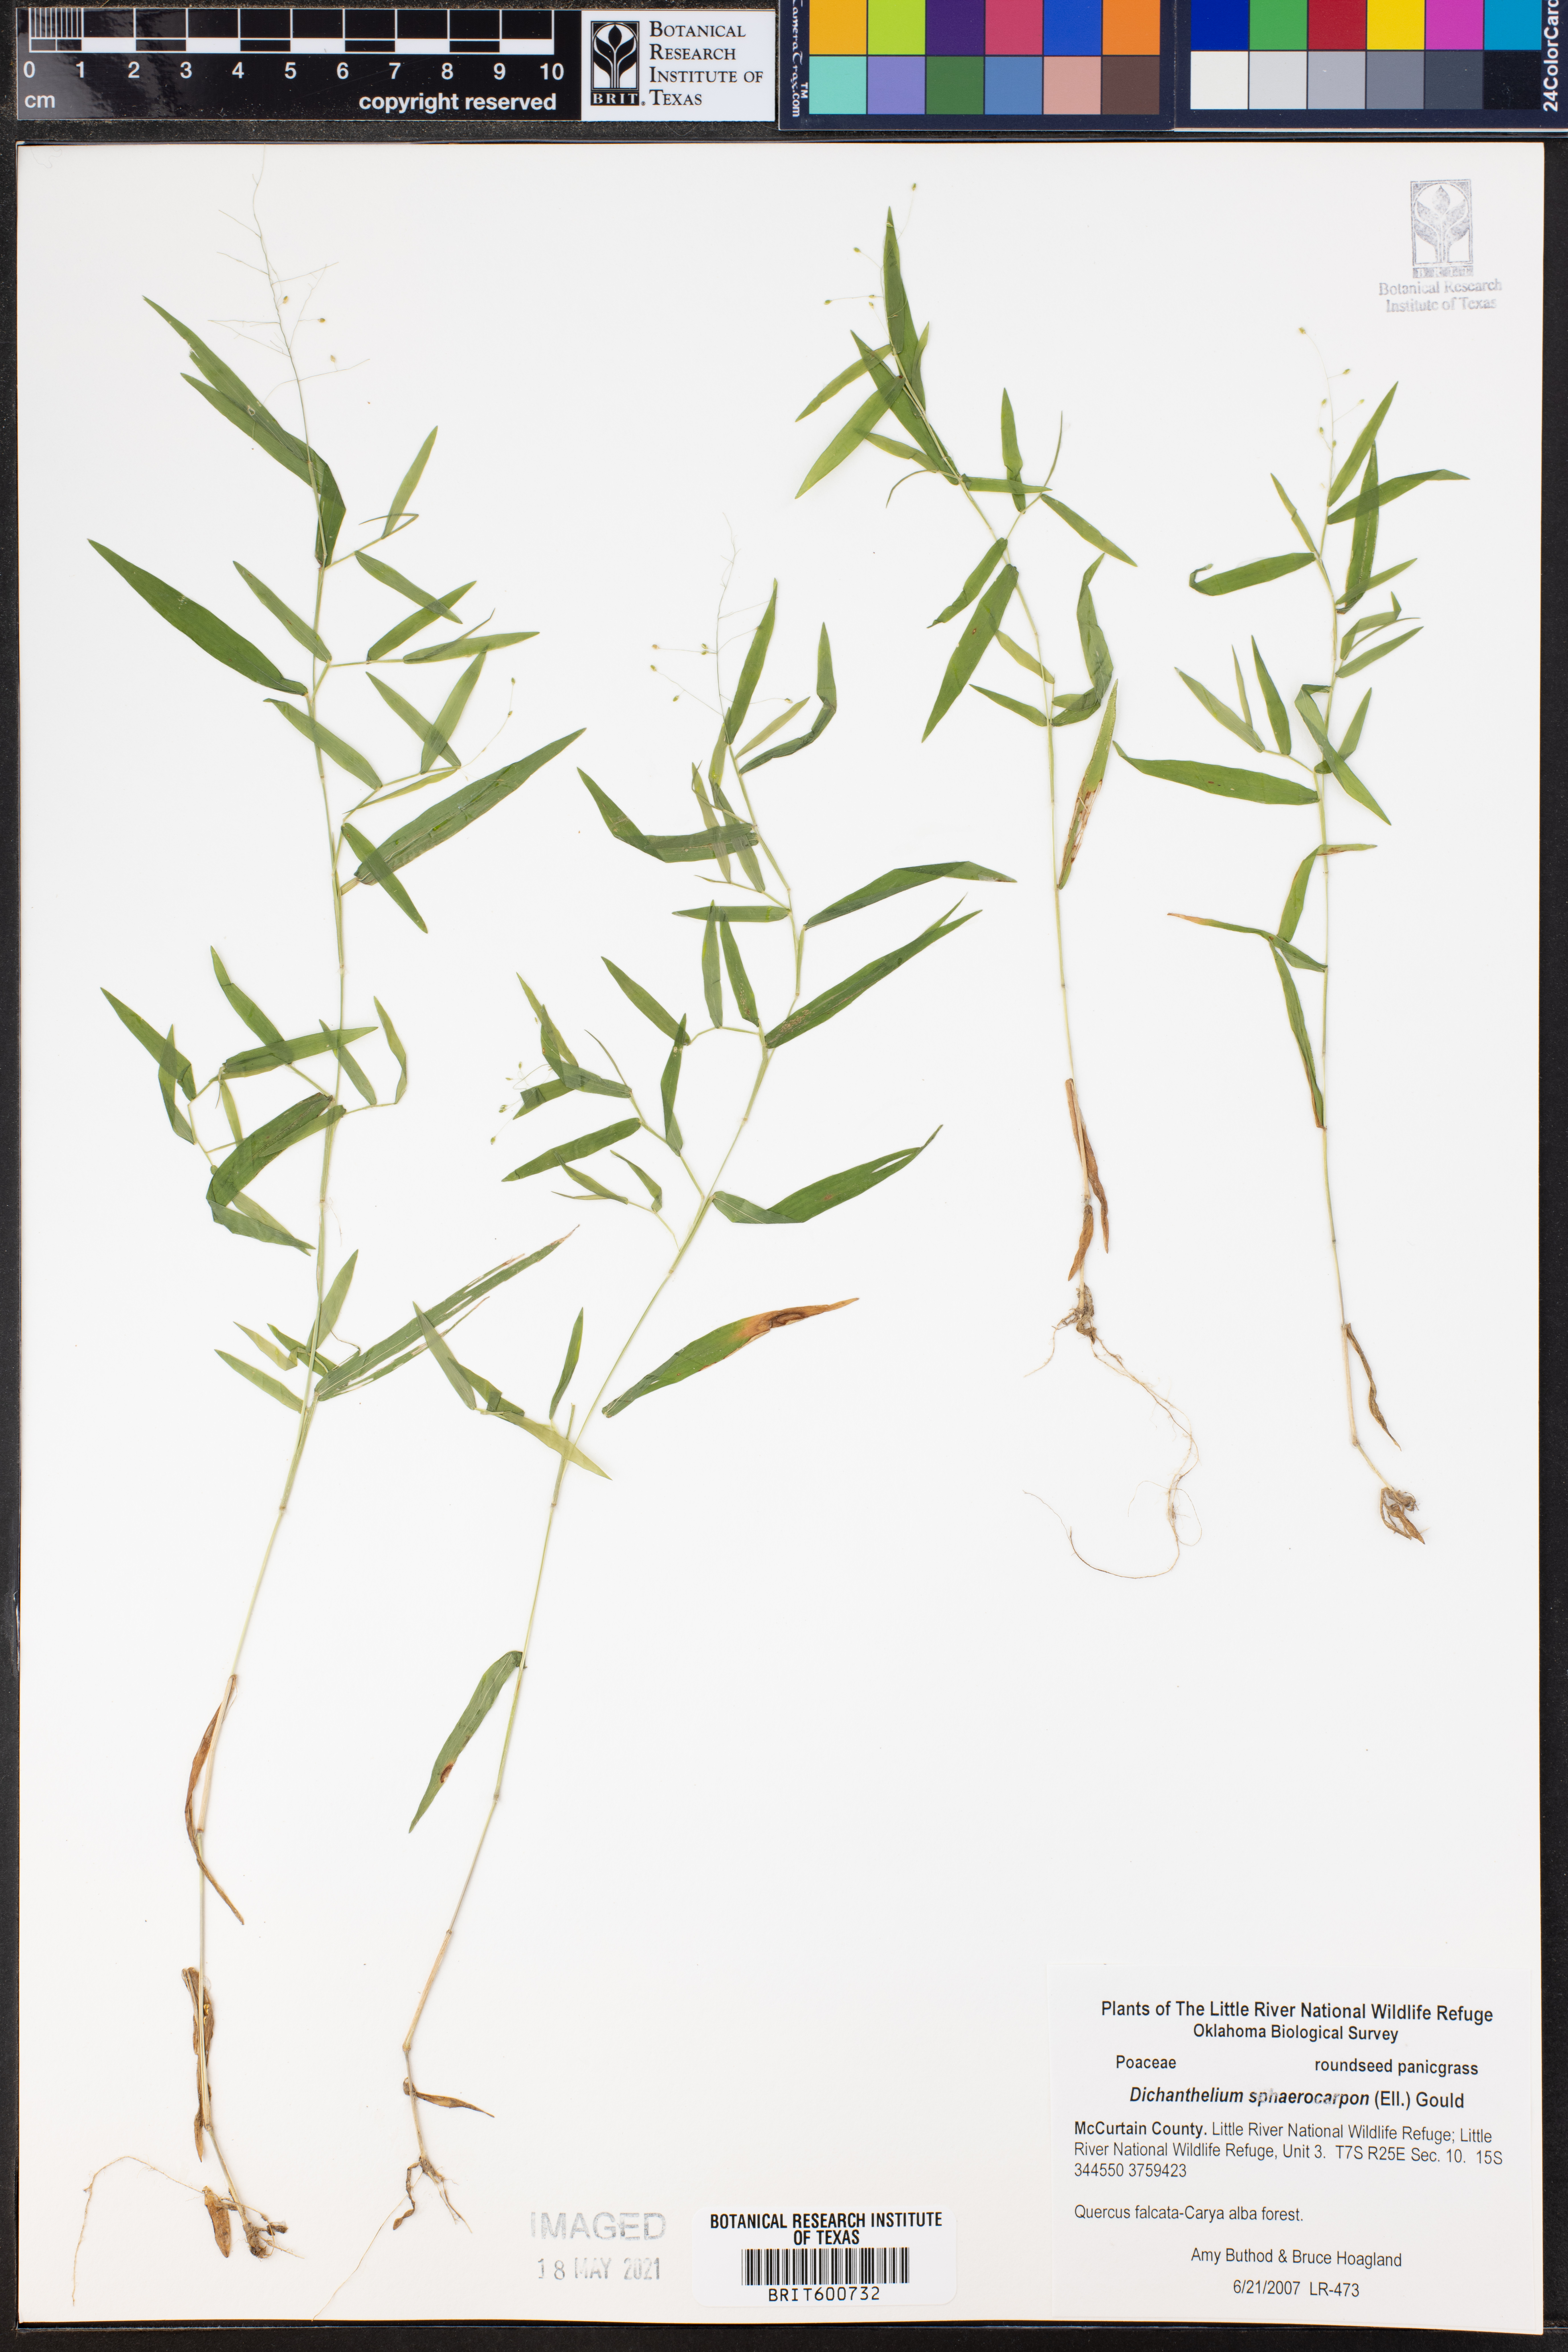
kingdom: Plantae
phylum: Tracheophyta
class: Liliopsida
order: Poales
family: Poaceae
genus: Dichanthelium
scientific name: Dichanthelium sphaerocarpon
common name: Round-fruited panicgrass
